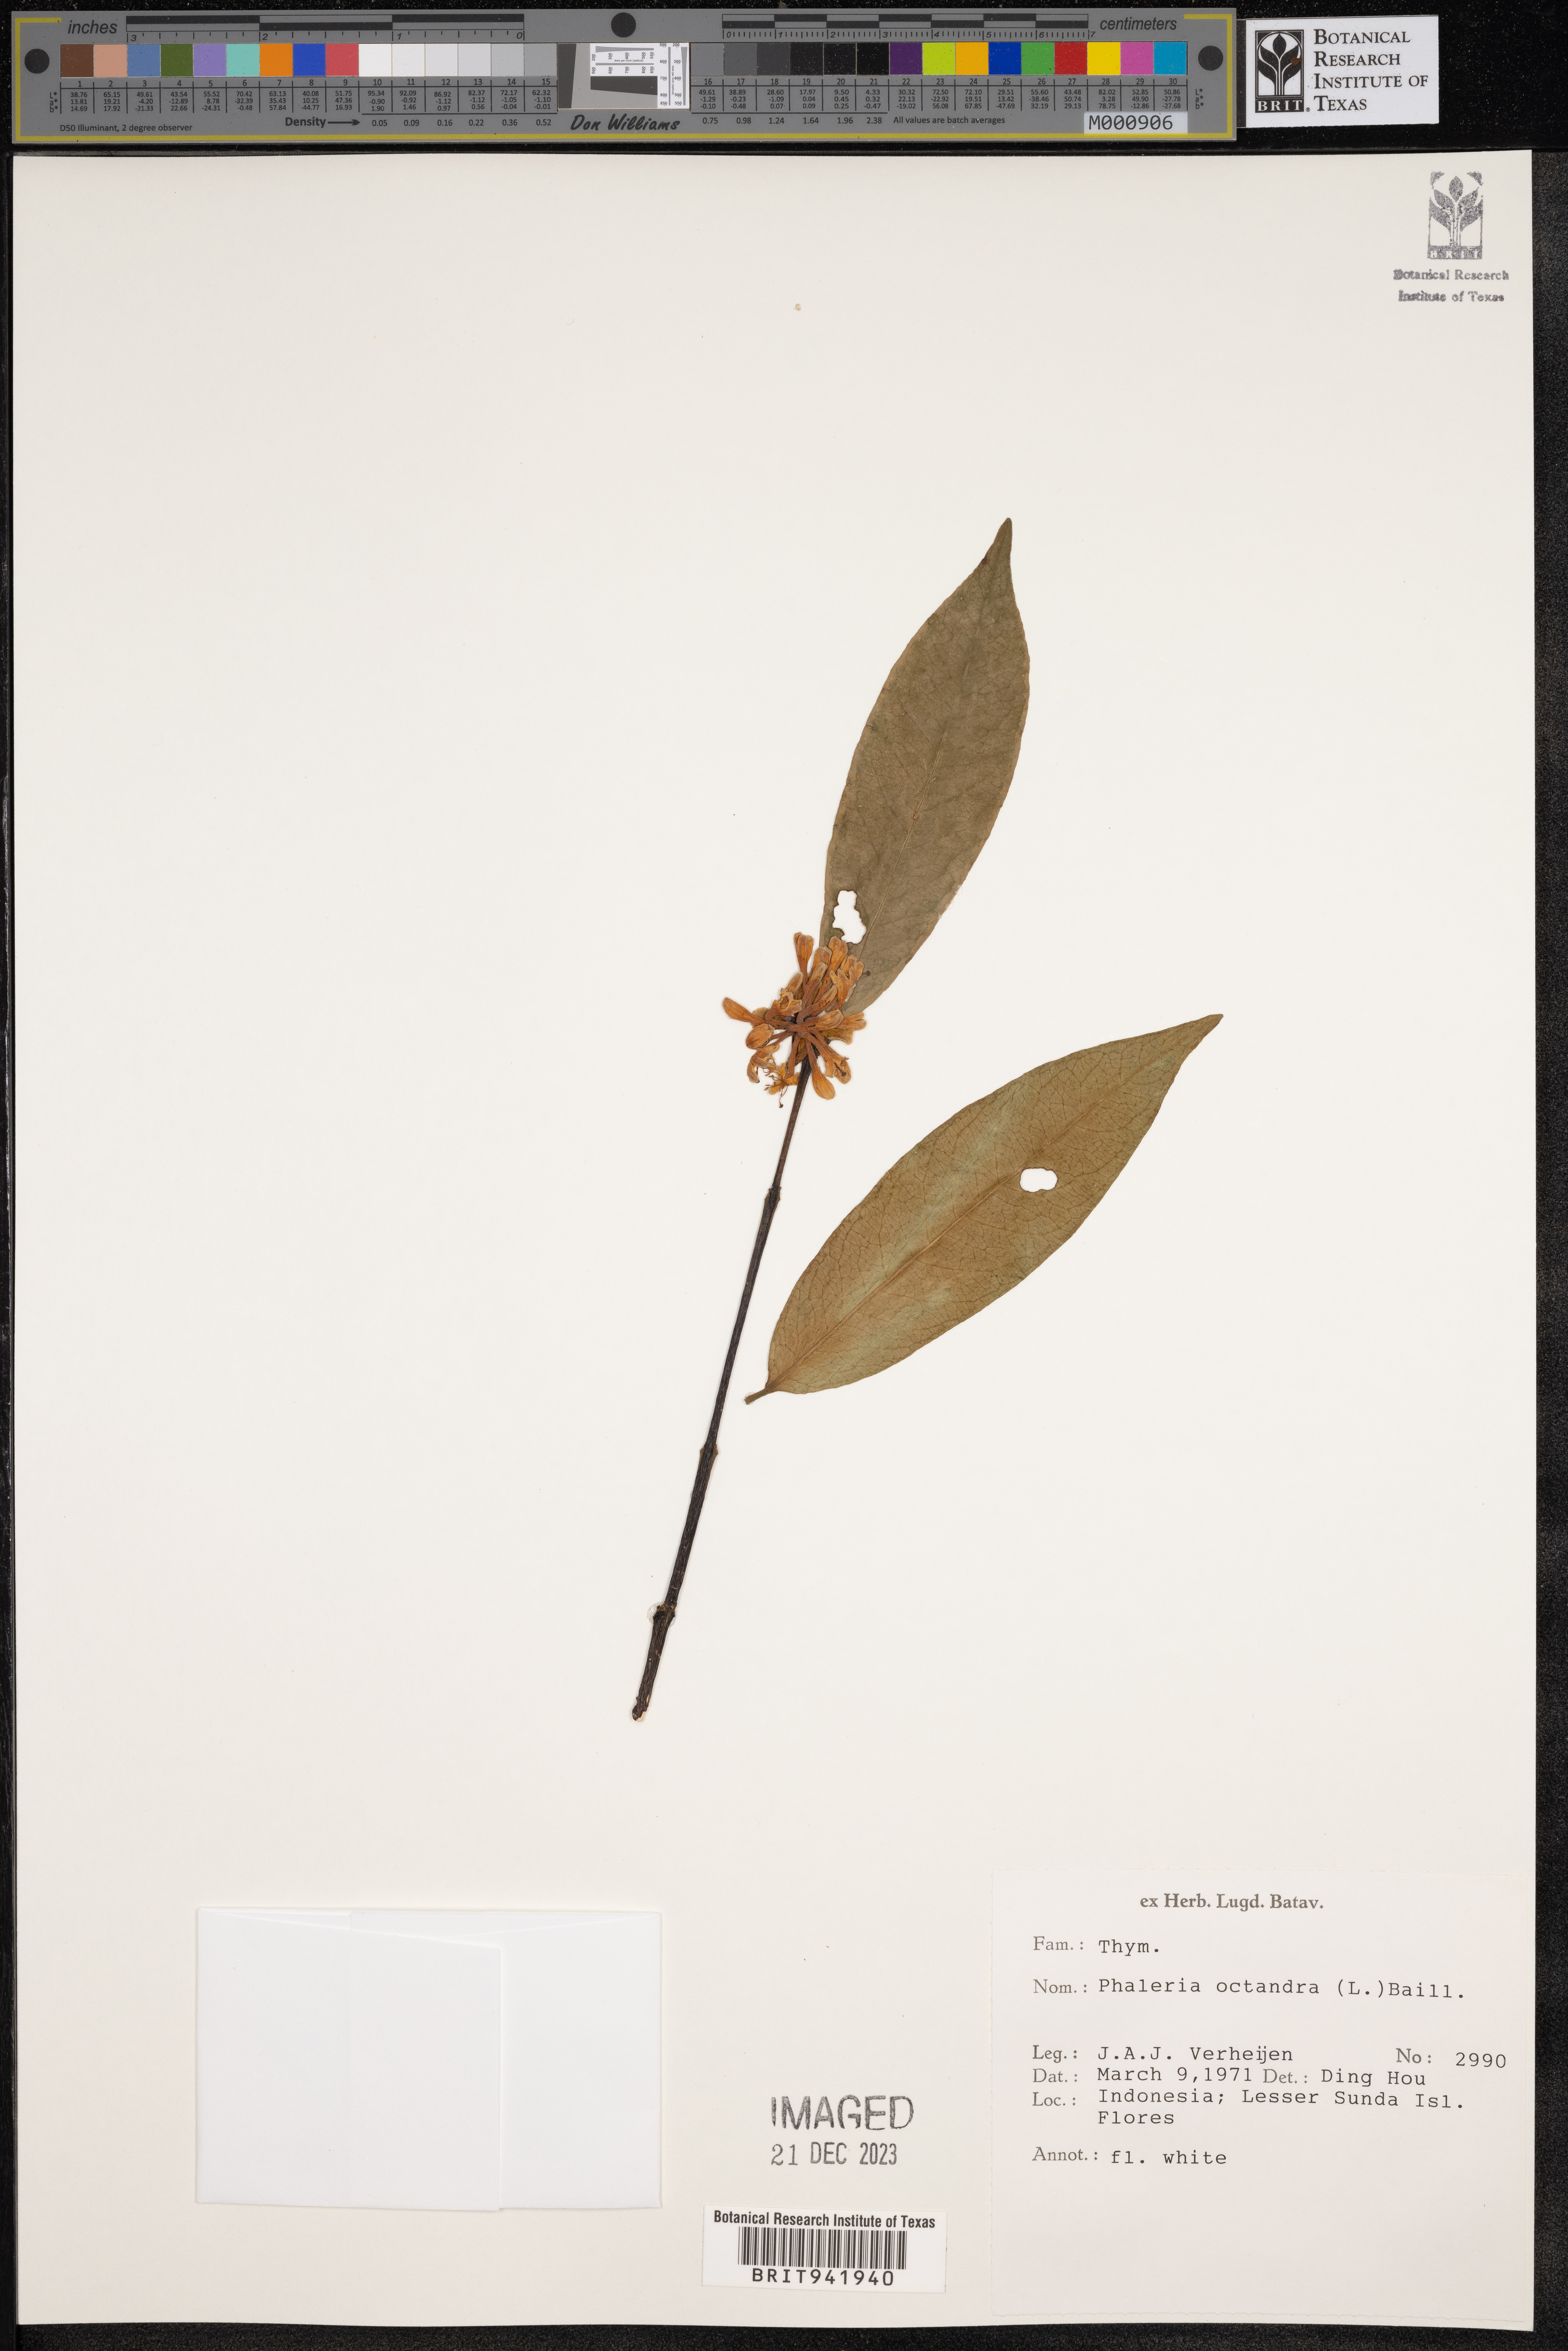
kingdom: Plantae
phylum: Tracheophyta
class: Magnoliopsida
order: Malvales
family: Thymelaeaceae
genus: Phaleria
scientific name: Phaleria
